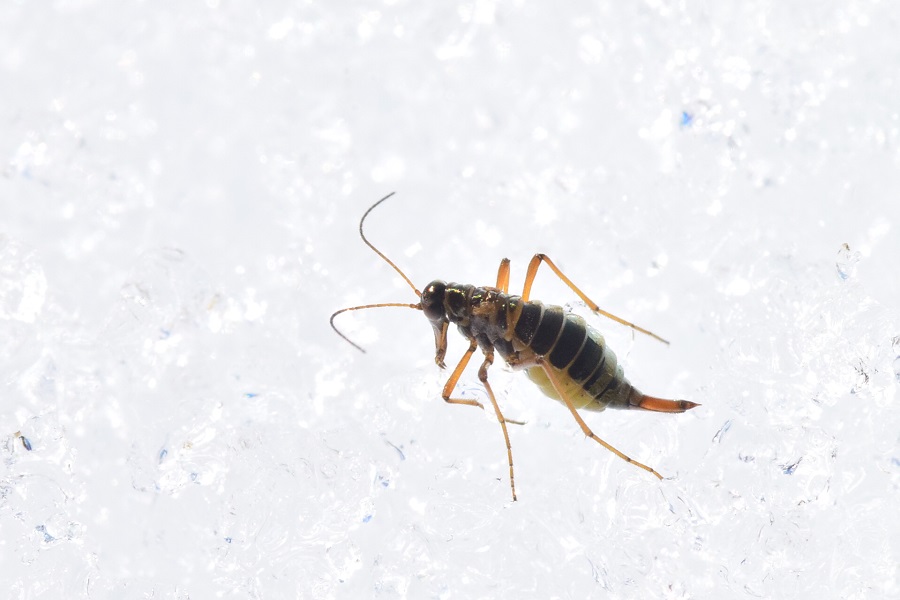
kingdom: Animalia
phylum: Arthropoda
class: Insecta
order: Mecoptera
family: Boreidae
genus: Boreus
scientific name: Boreus westwoodi
